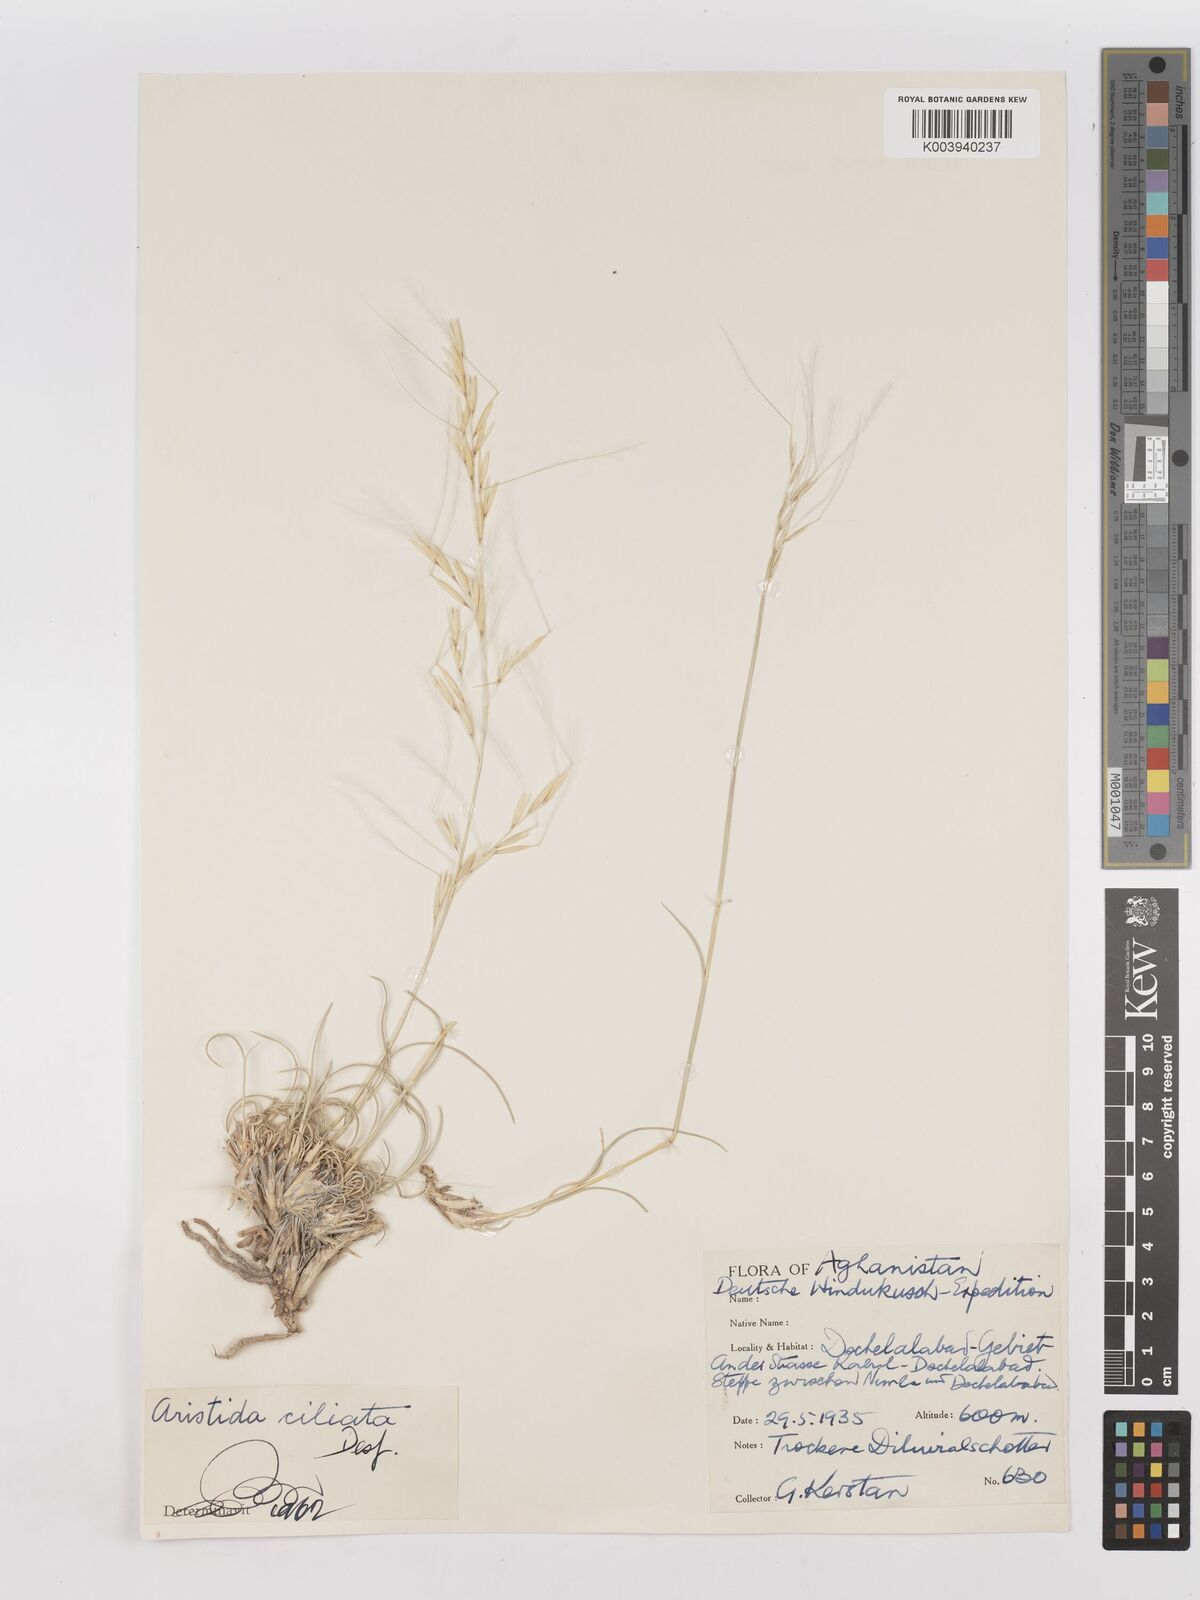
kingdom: Plantae
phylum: Tracheophyta
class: Liliopsida
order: Poales
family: Poaceae
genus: Stipagrostis
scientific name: Stipagrostis ciliata
